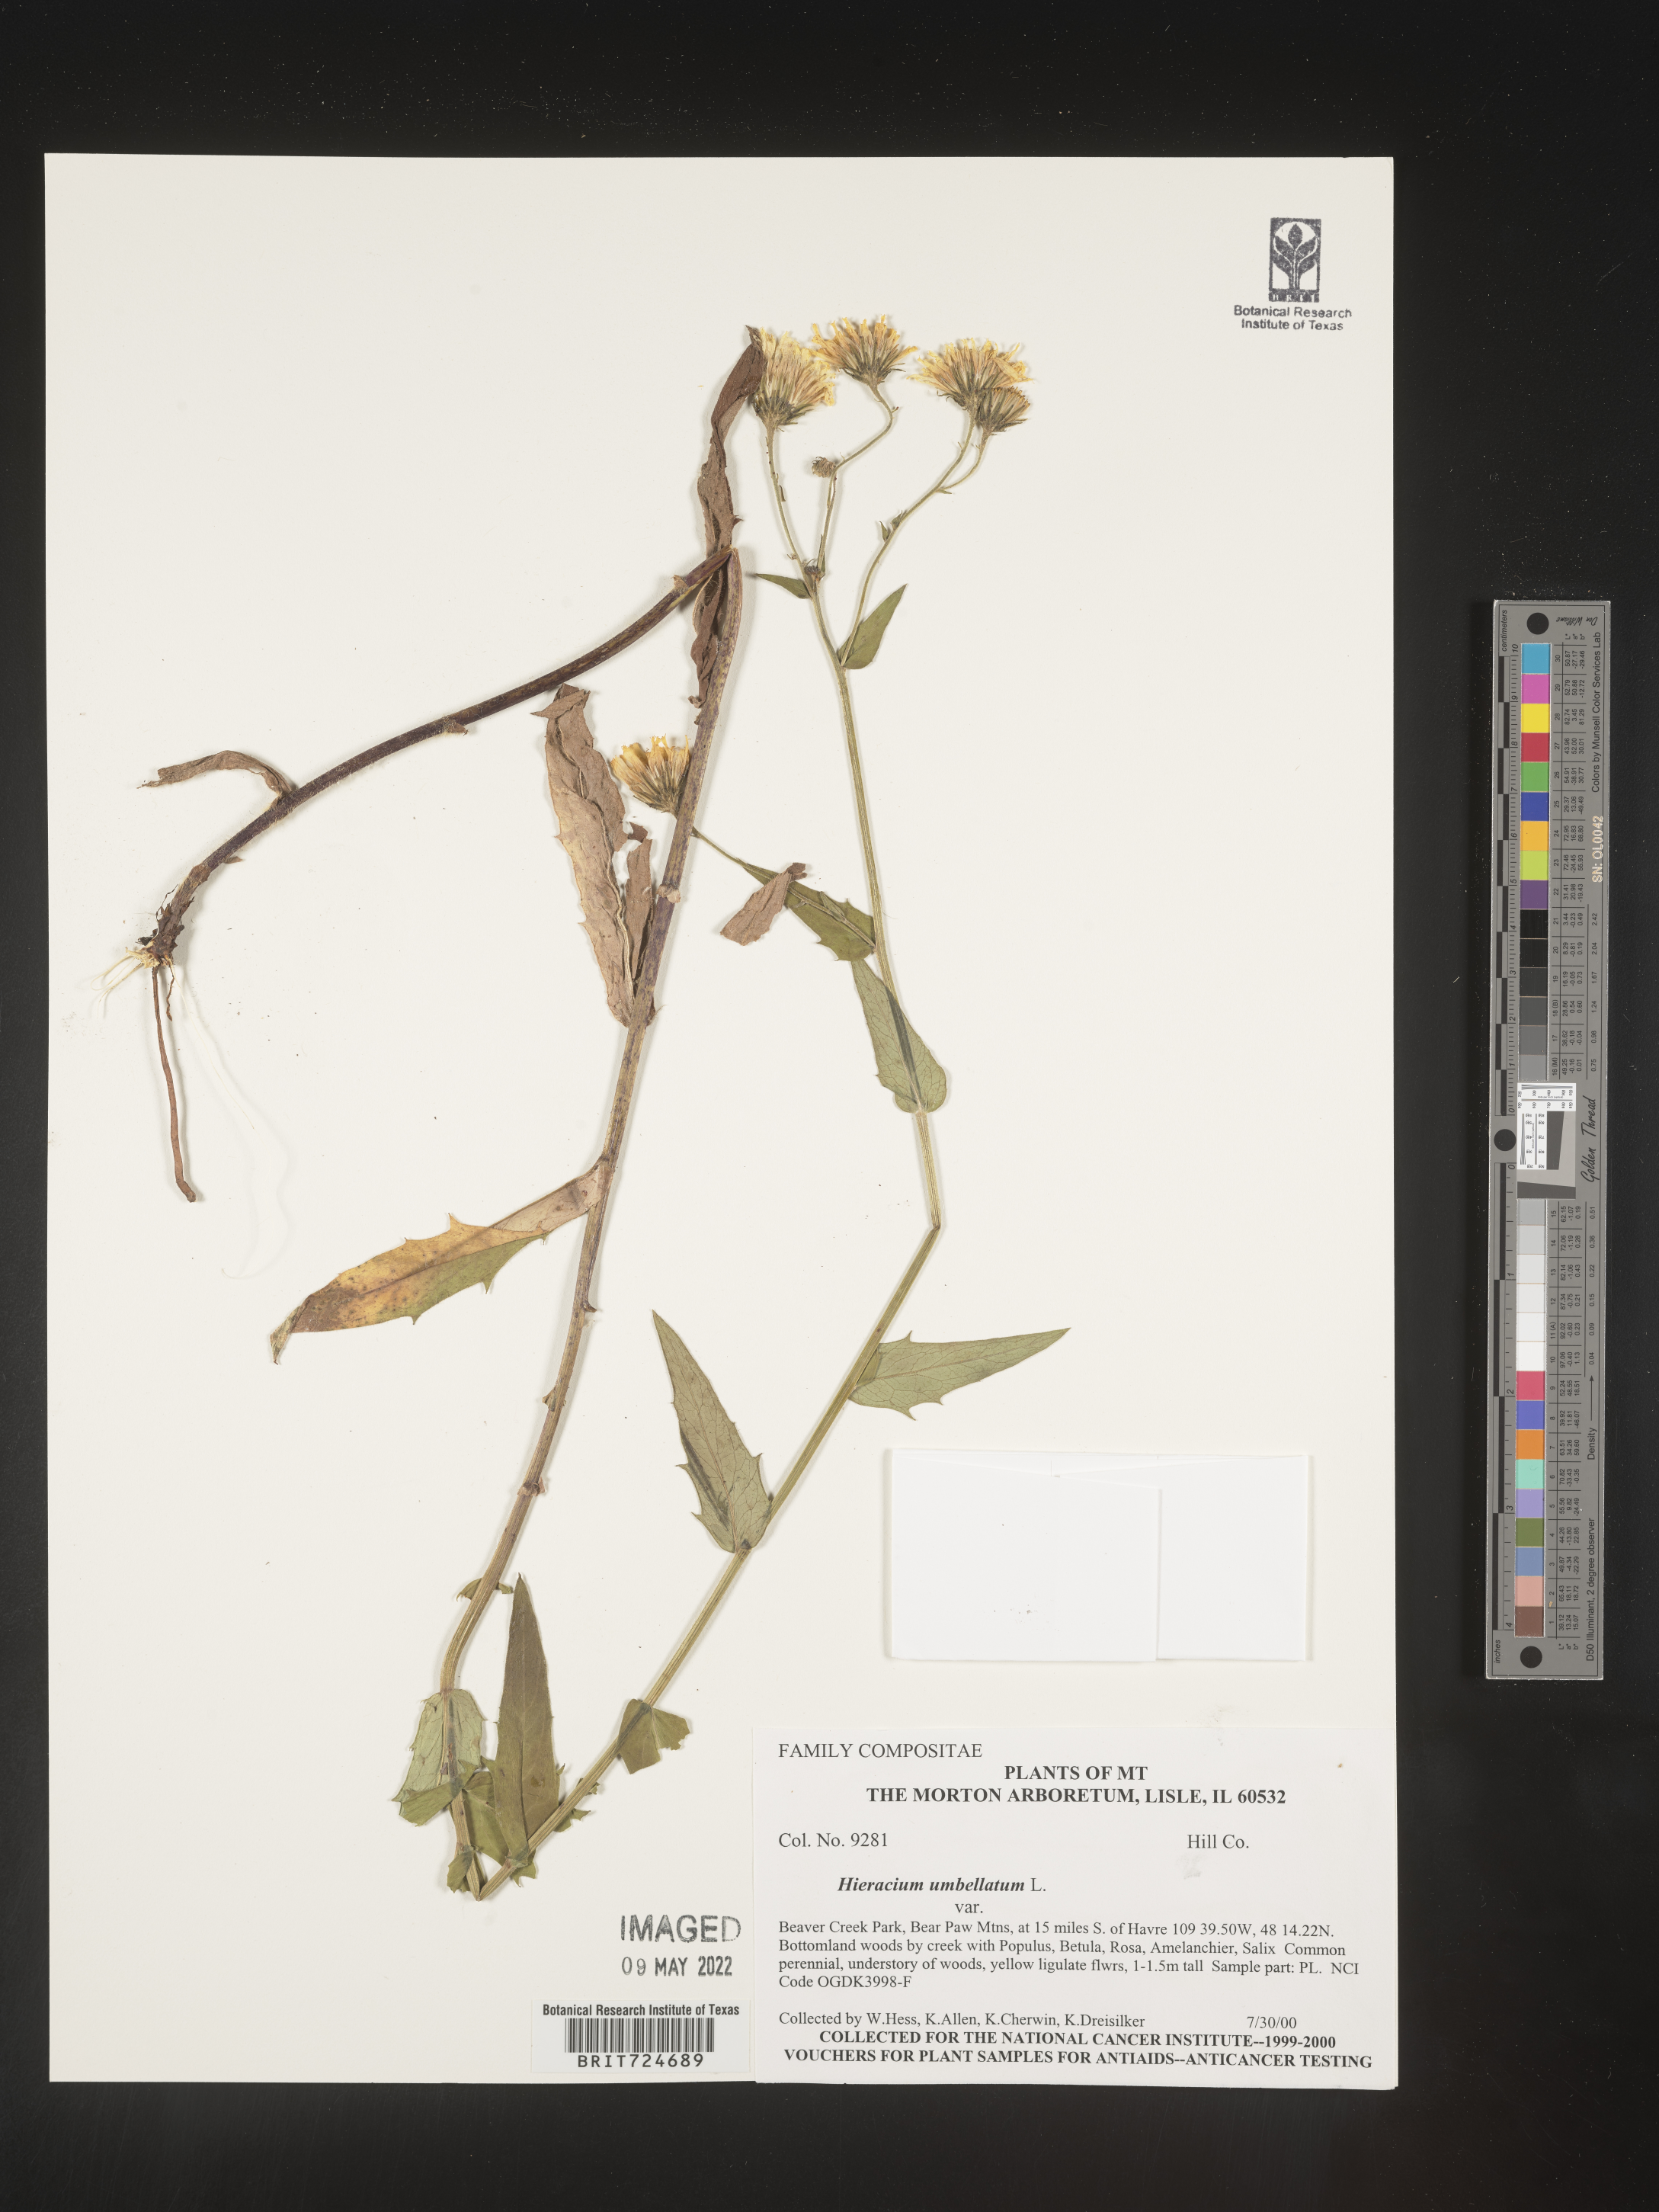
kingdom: Plantae
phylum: Tracheophyta
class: Magnoliopsida
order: Asterales
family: Asteraceae
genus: Hieracium
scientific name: Hieracium
